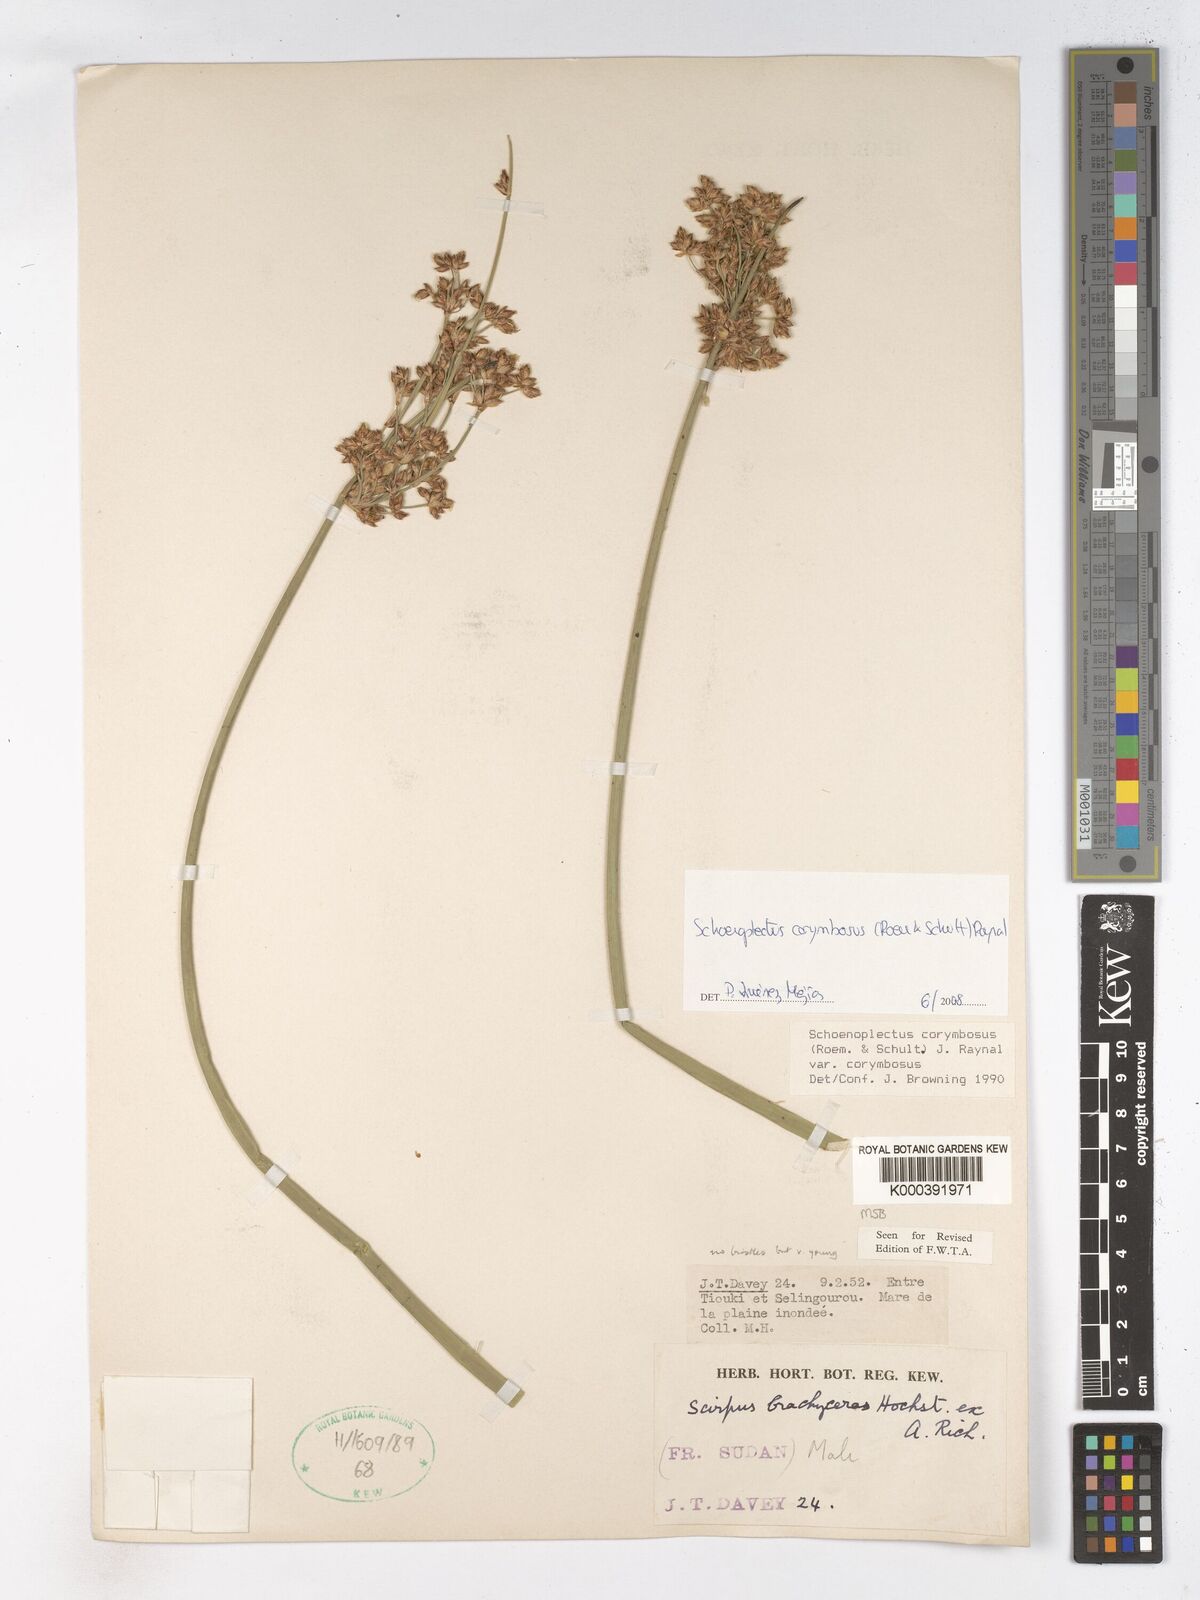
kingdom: Plantae
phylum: Tracheophyta
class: Liliopsida
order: Poales
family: Cyperaceae
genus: Schoenoplectiella
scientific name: Schoenoplectiella brachyceras
